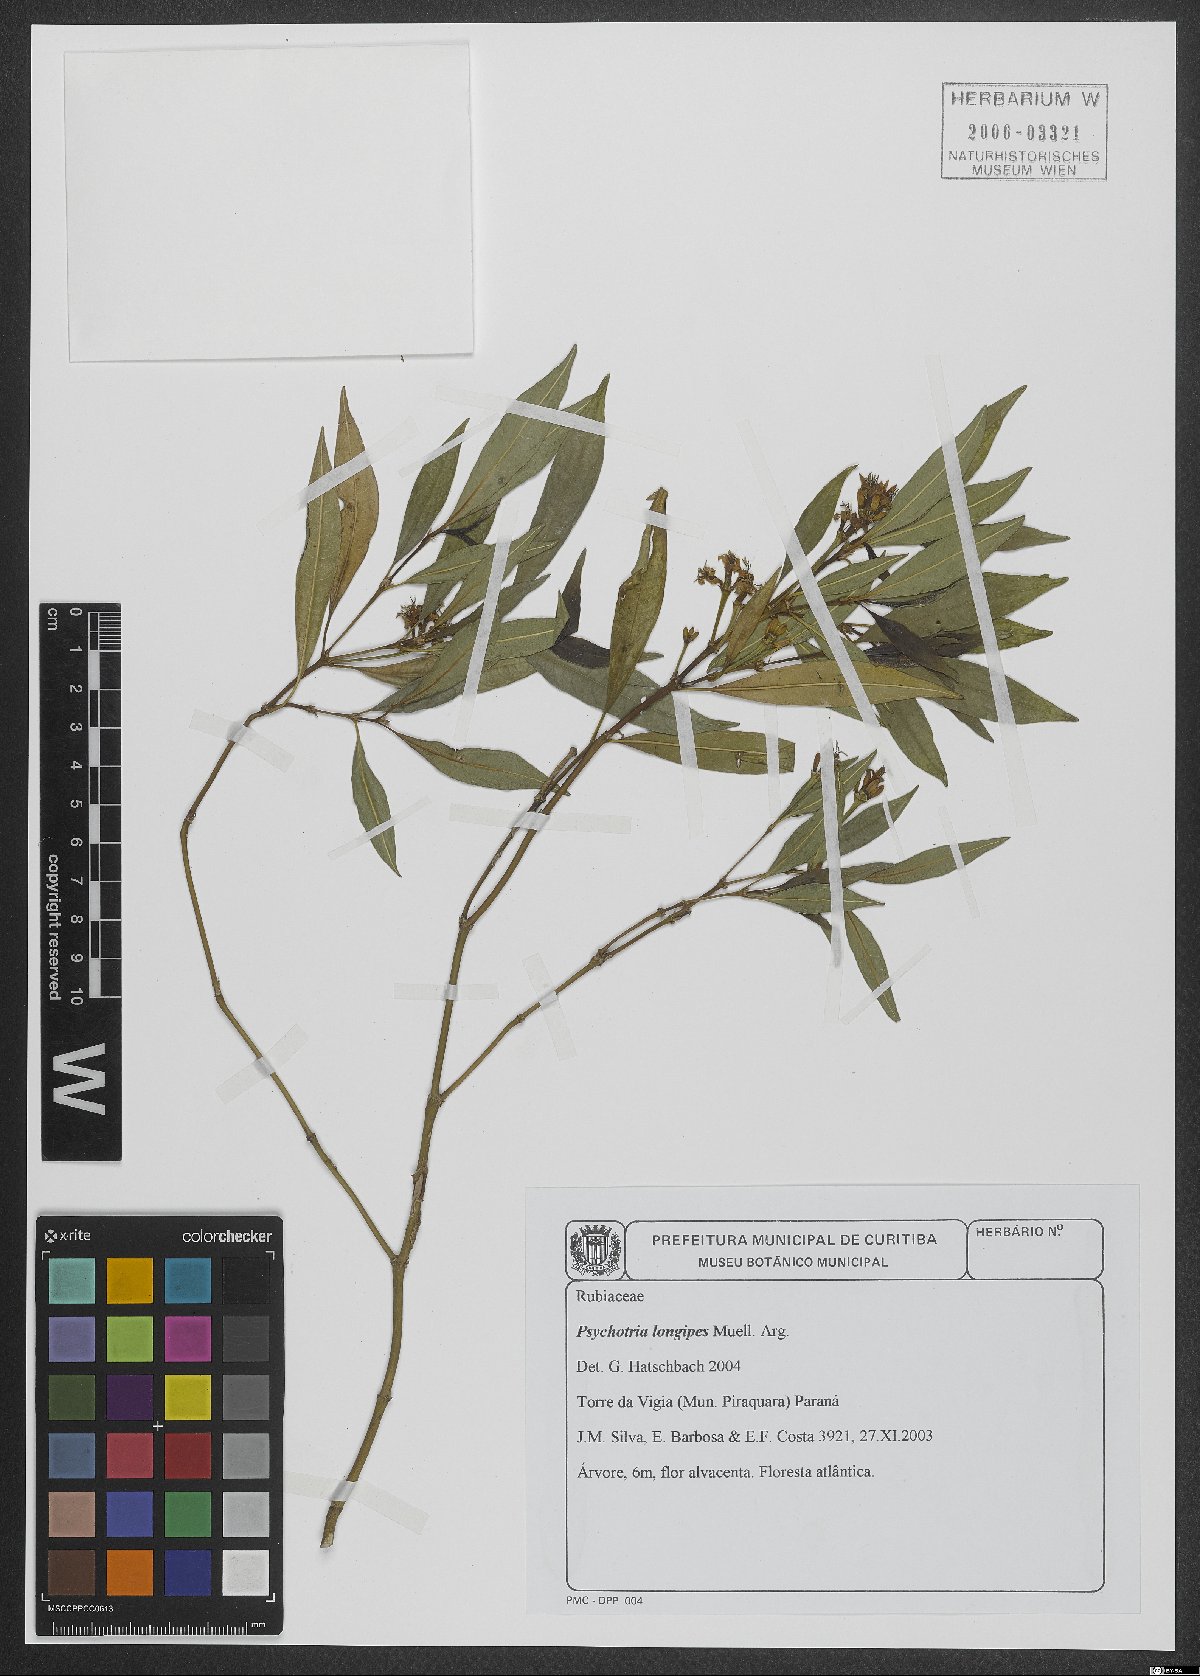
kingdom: Plantae
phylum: Tracheophyta
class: Magnoliopsida
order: Gentianales
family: Rubiaceae
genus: Palicourea
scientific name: Palicourea jungiana
